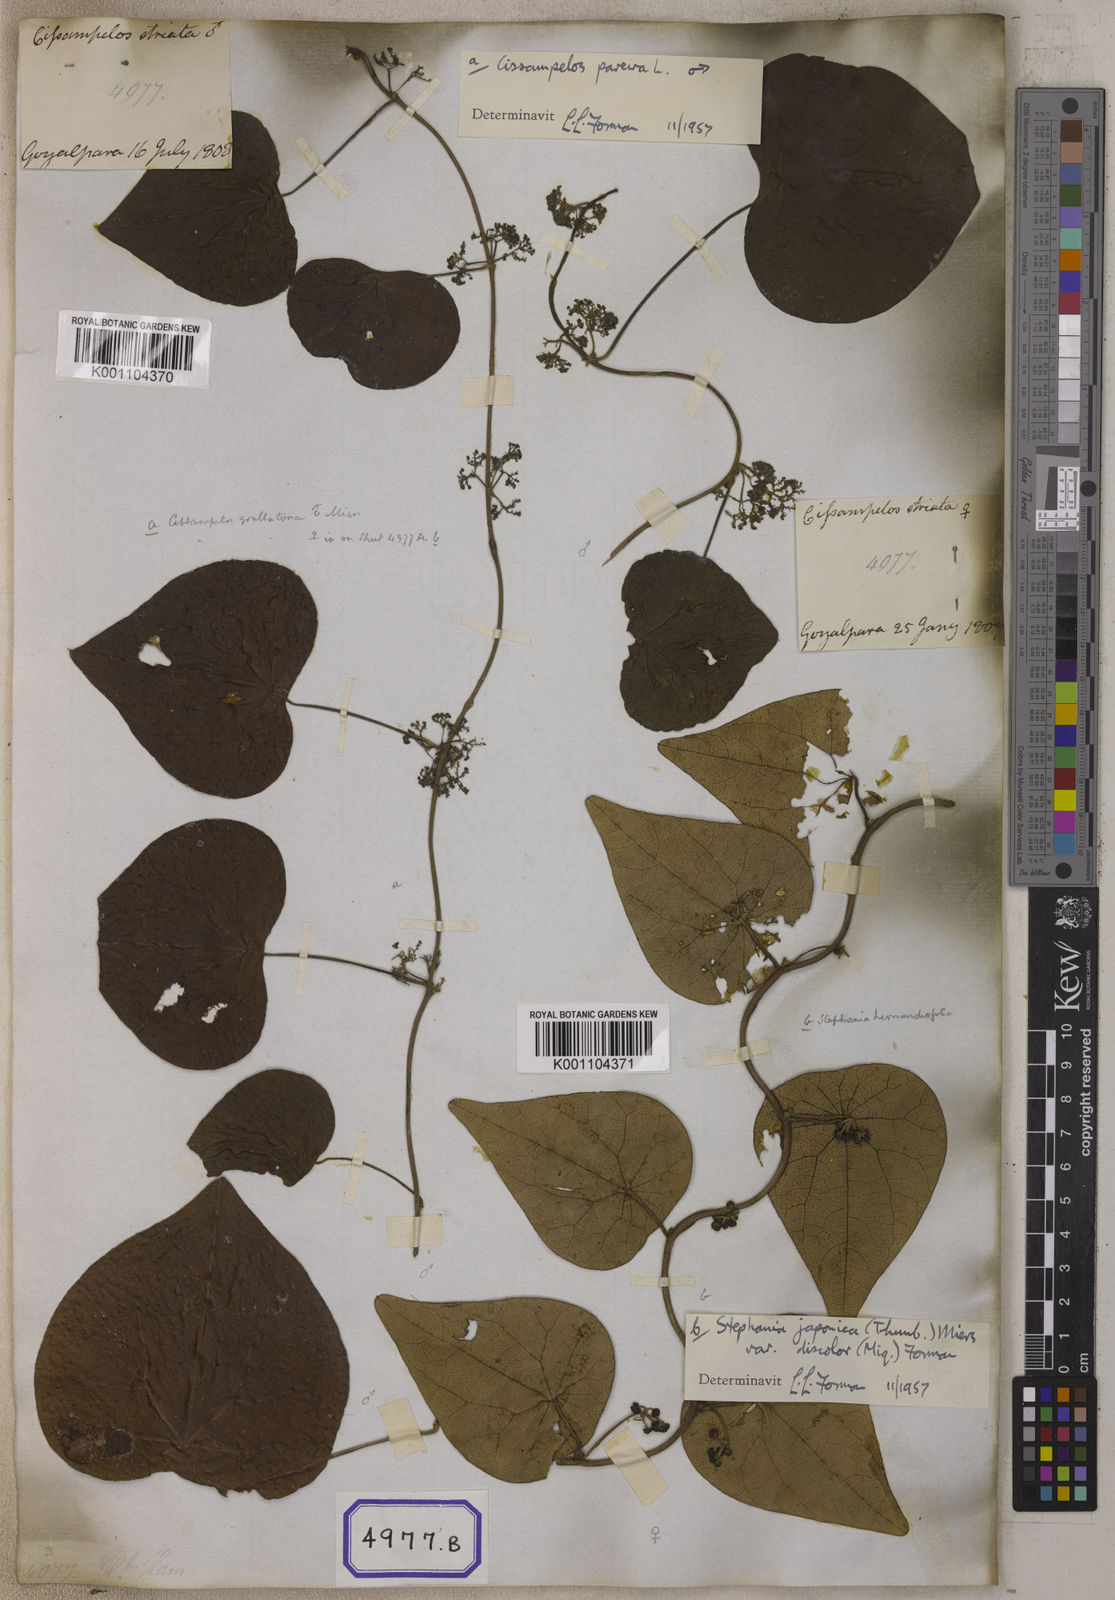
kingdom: Plantae
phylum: Tracheophyta
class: Magnoliopsida
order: Ranunculales
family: Menispermaceae
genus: Stephania
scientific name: Stephania japonica
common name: Snake vine
